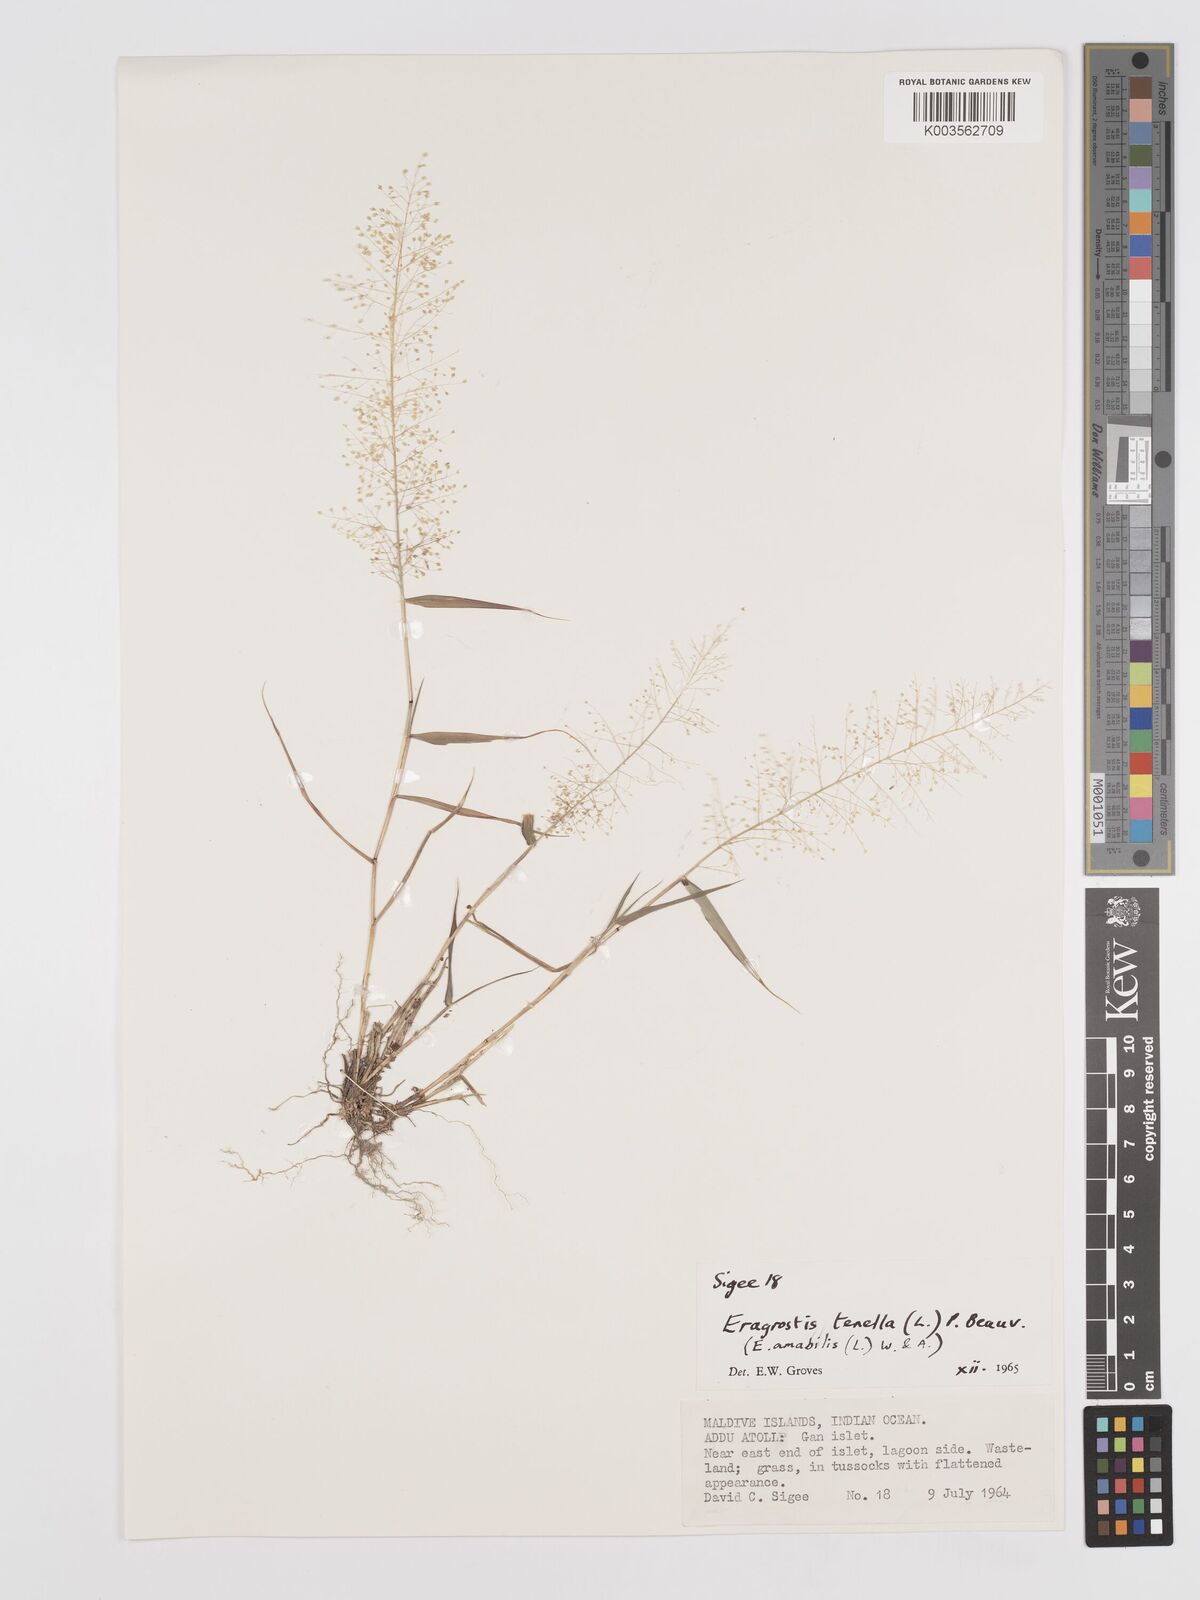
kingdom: Plantae
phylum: Tracheophyta
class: Liliopsida
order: Poales
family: Poaceae
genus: Eragrostis
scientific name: Eragrostis tenella
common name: Japanese lovegrass
